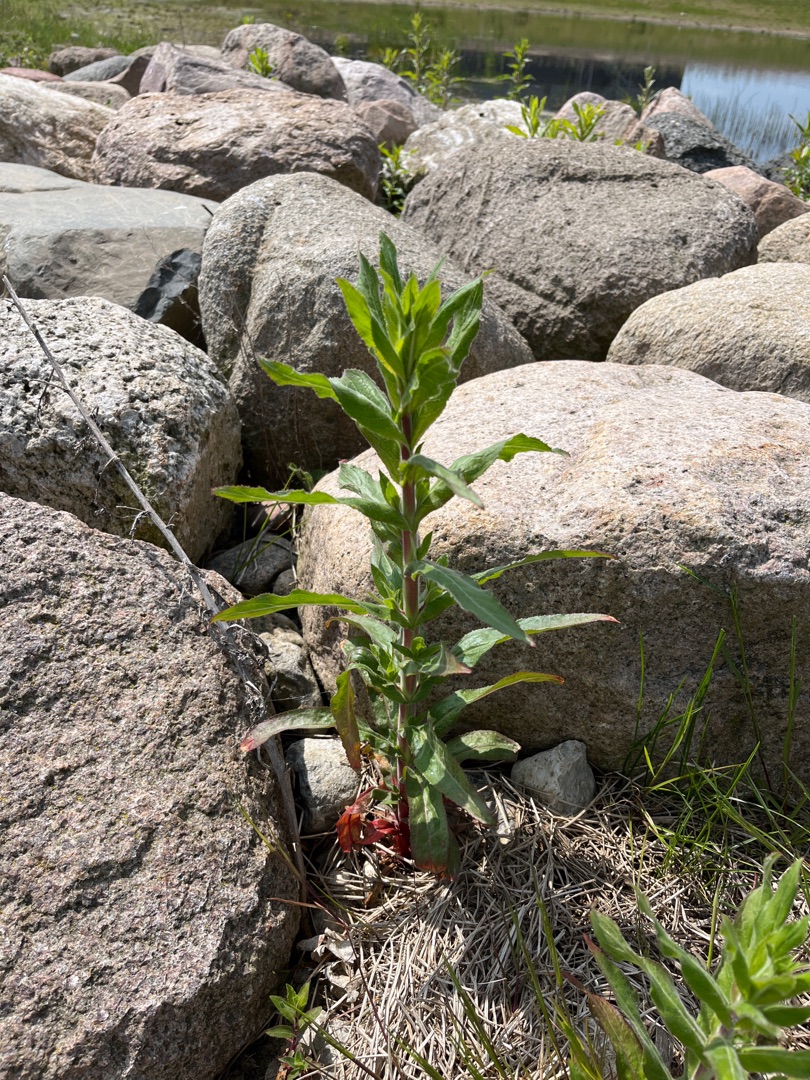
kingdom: Plantae
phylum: Tracheophyta
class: Magnoliopsida
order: Myrtales
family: Onagraceae
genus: Epilobium
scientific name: Epilobium hirsutum
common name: Lådden dueurt
